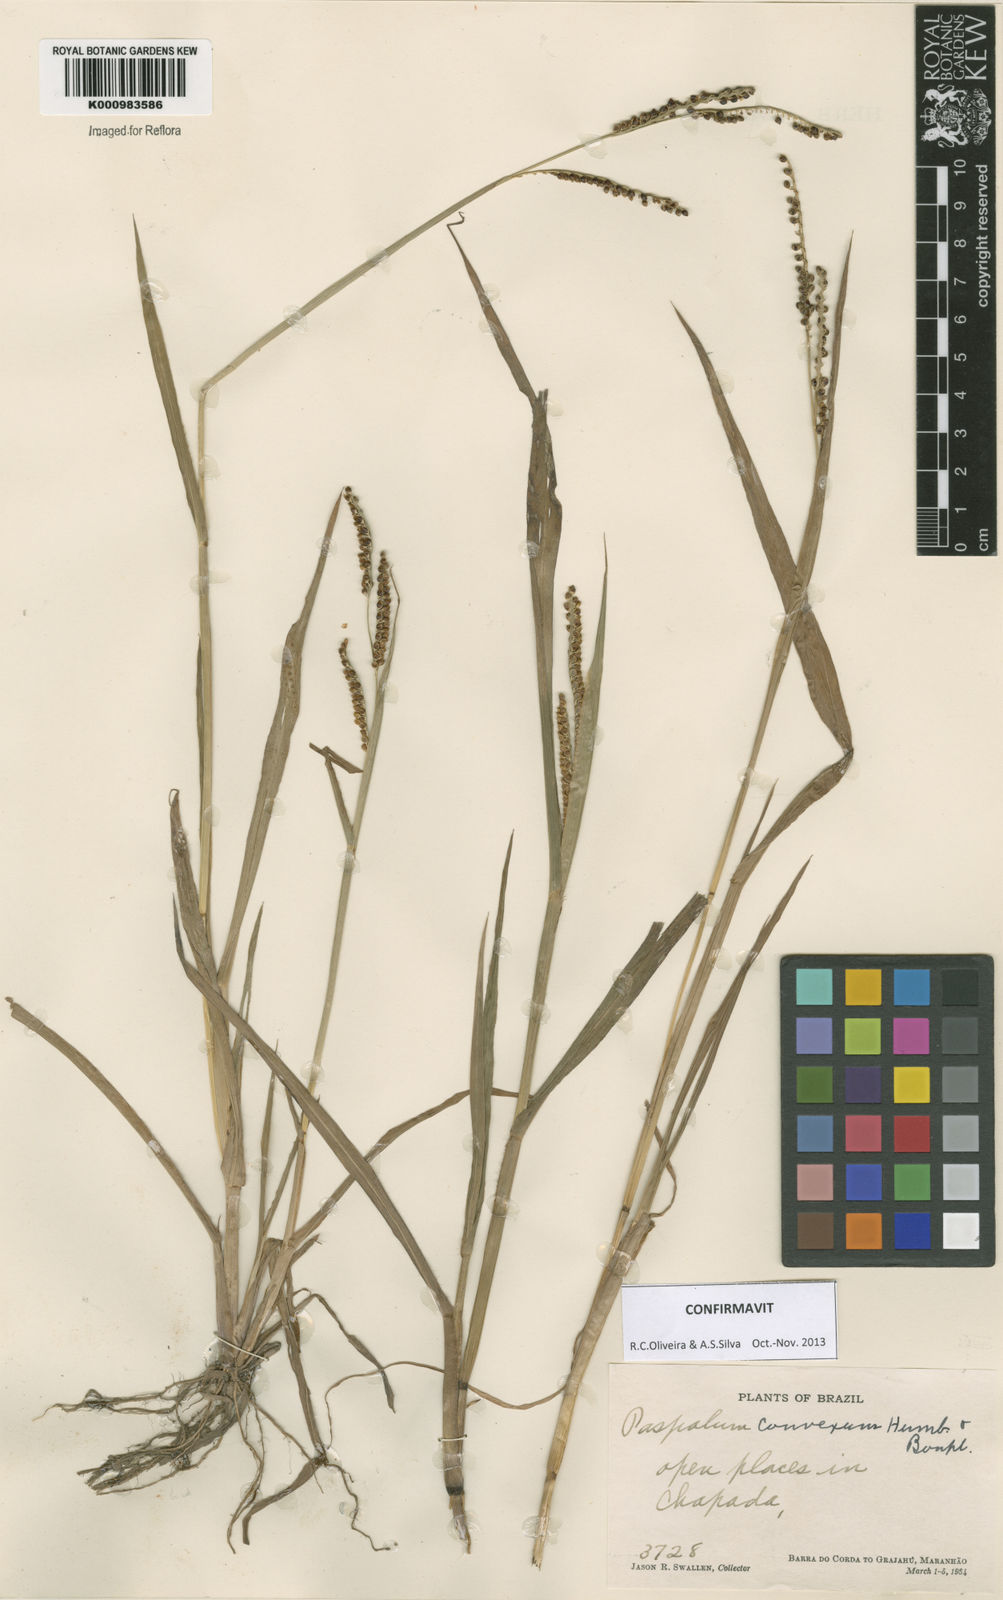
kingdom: Plantae
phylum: Tracheophyta
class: Liliopsida
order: Poales
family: Poaceae
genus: Paspalum
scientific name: Paspalum
